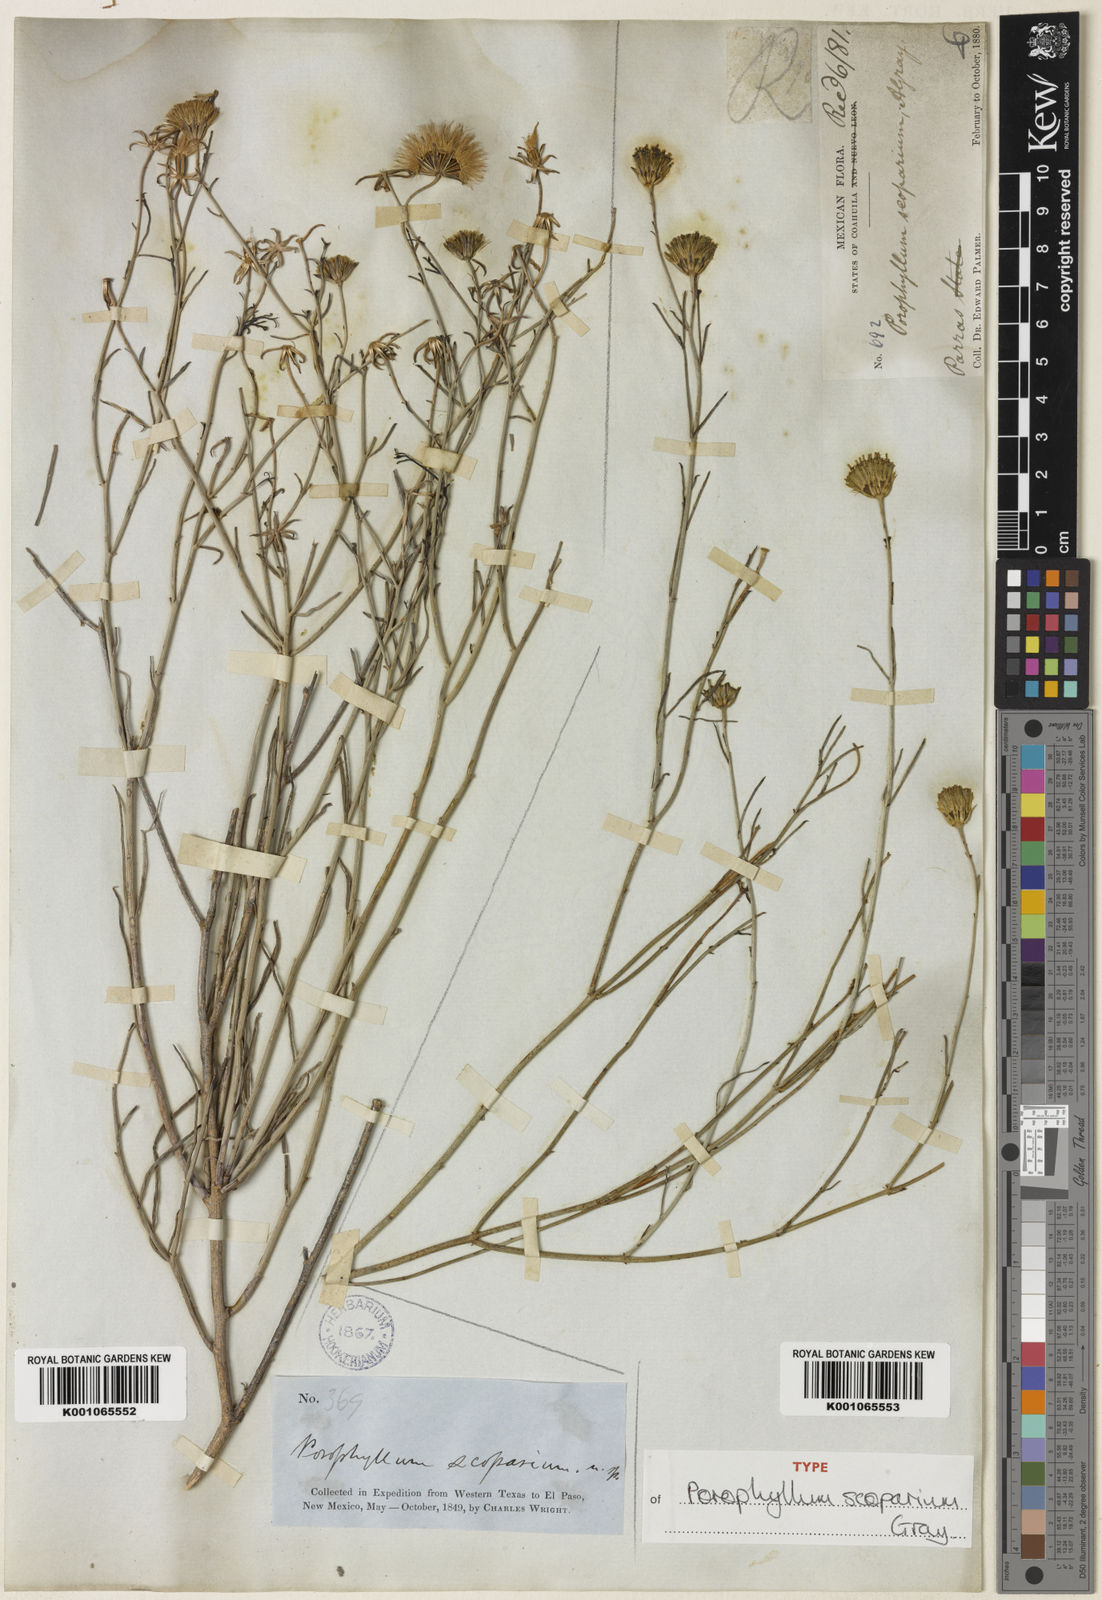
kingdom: Plantae
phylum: Tracheophyta
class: Magnoliopsida
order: Asterales
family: Asteraceae
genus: Porophyllum
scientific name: Porophyllum scoparium
